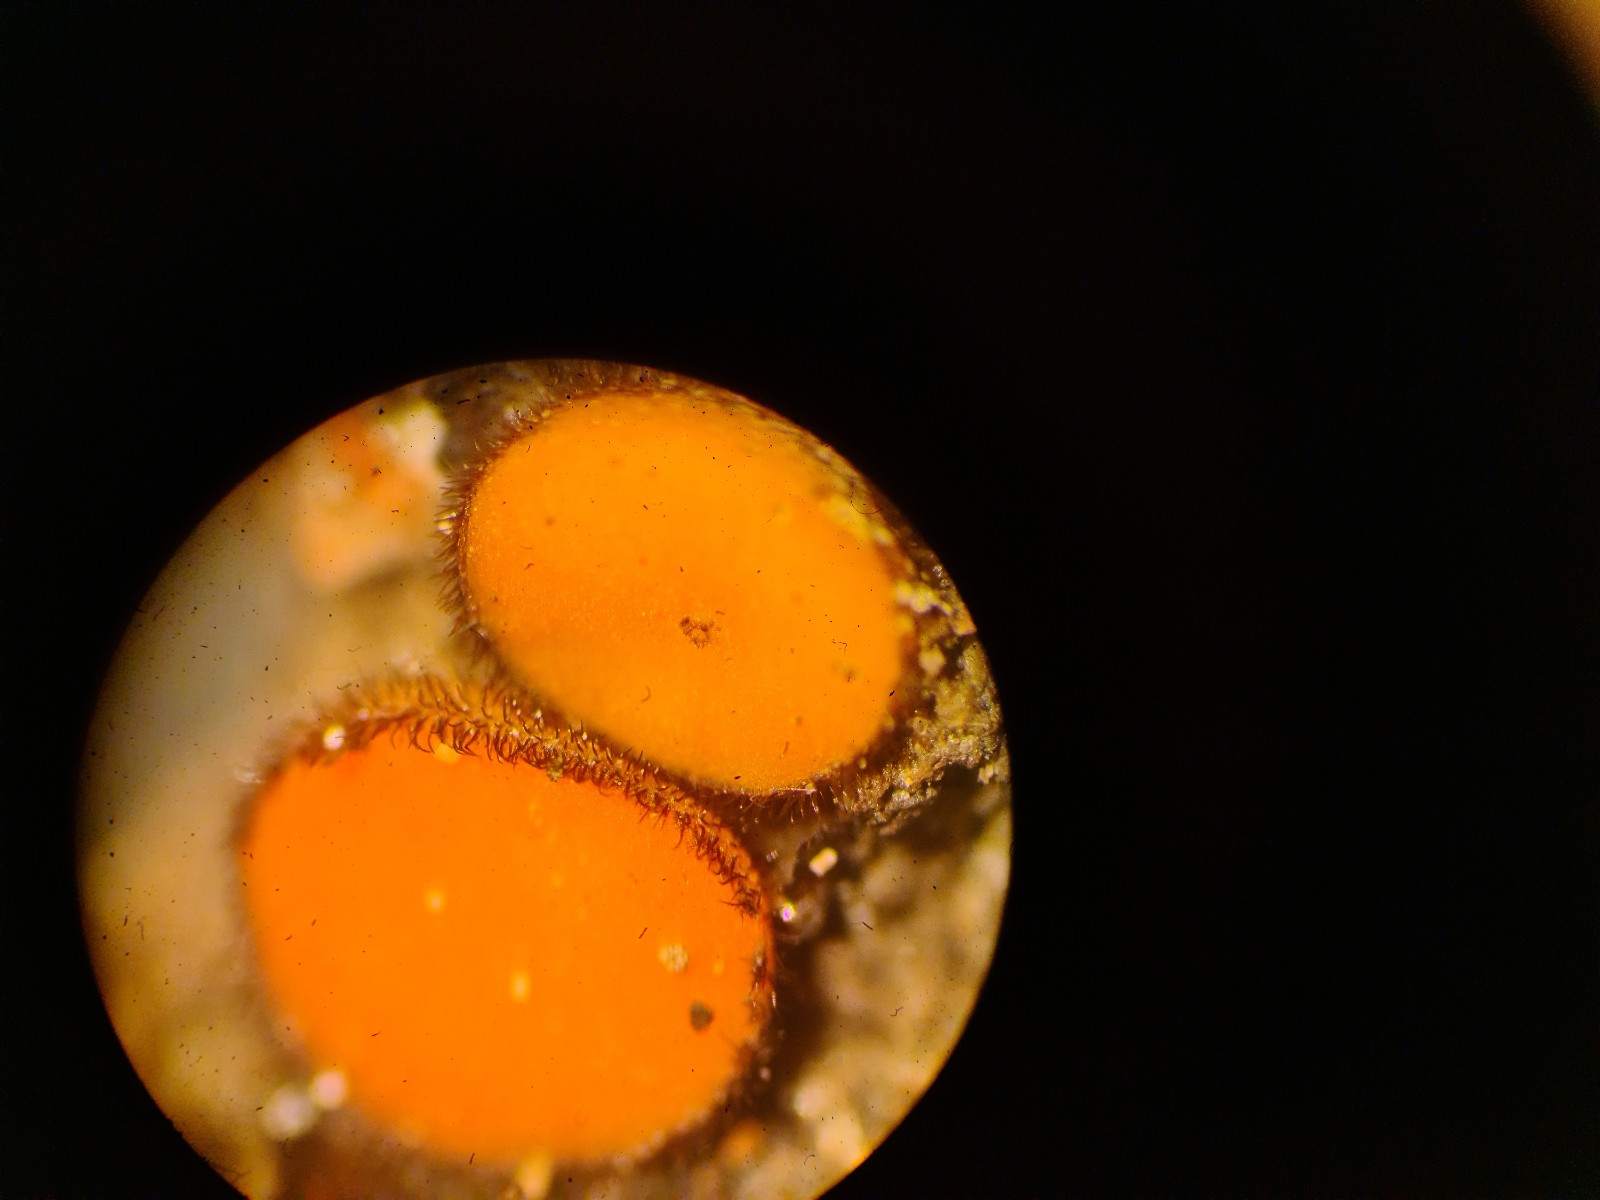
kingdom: Fungi
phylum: Ascomycota
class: Pezizomycetes
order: Pezizales
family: Pyronemataceae
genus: Scutellinia
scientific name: Scutellinia trechispora
